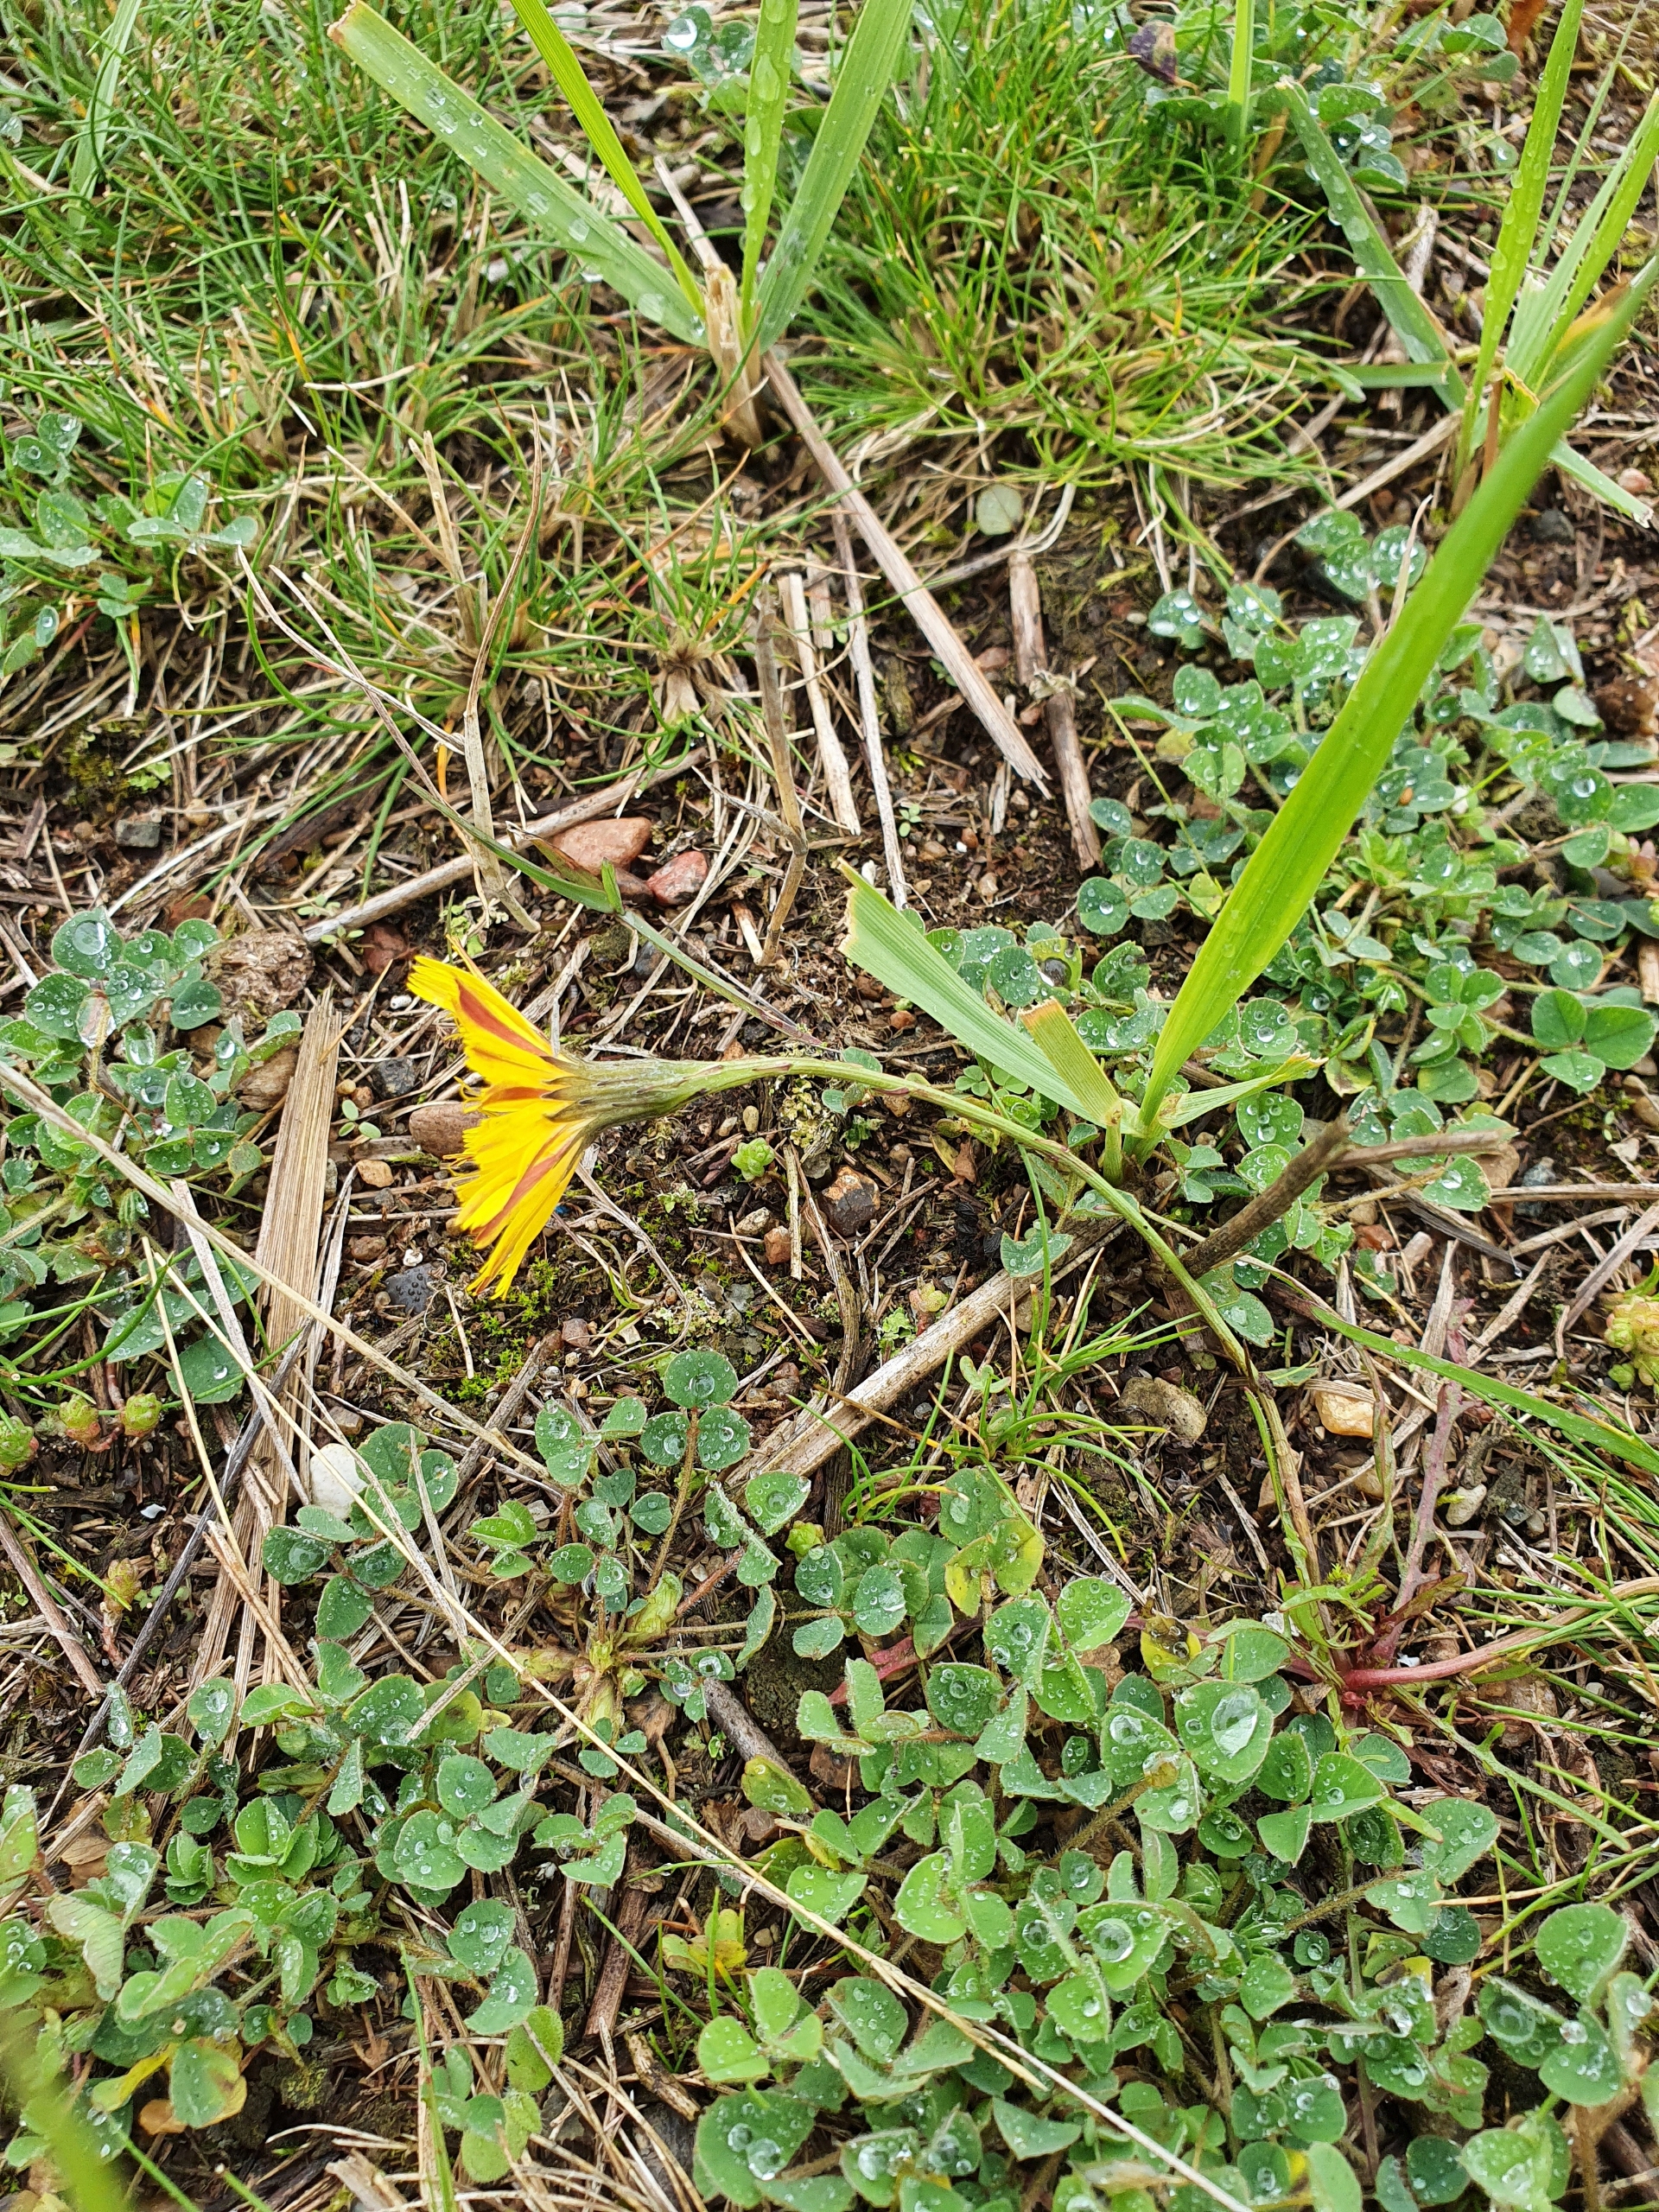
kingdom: Plantae
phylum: Tracheophyta
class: Magnoliopsida
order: Asterales
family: Asteraceae
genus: Scorzoneroides
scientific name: Scorzoneroides autumnalis
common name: Høst-borst
